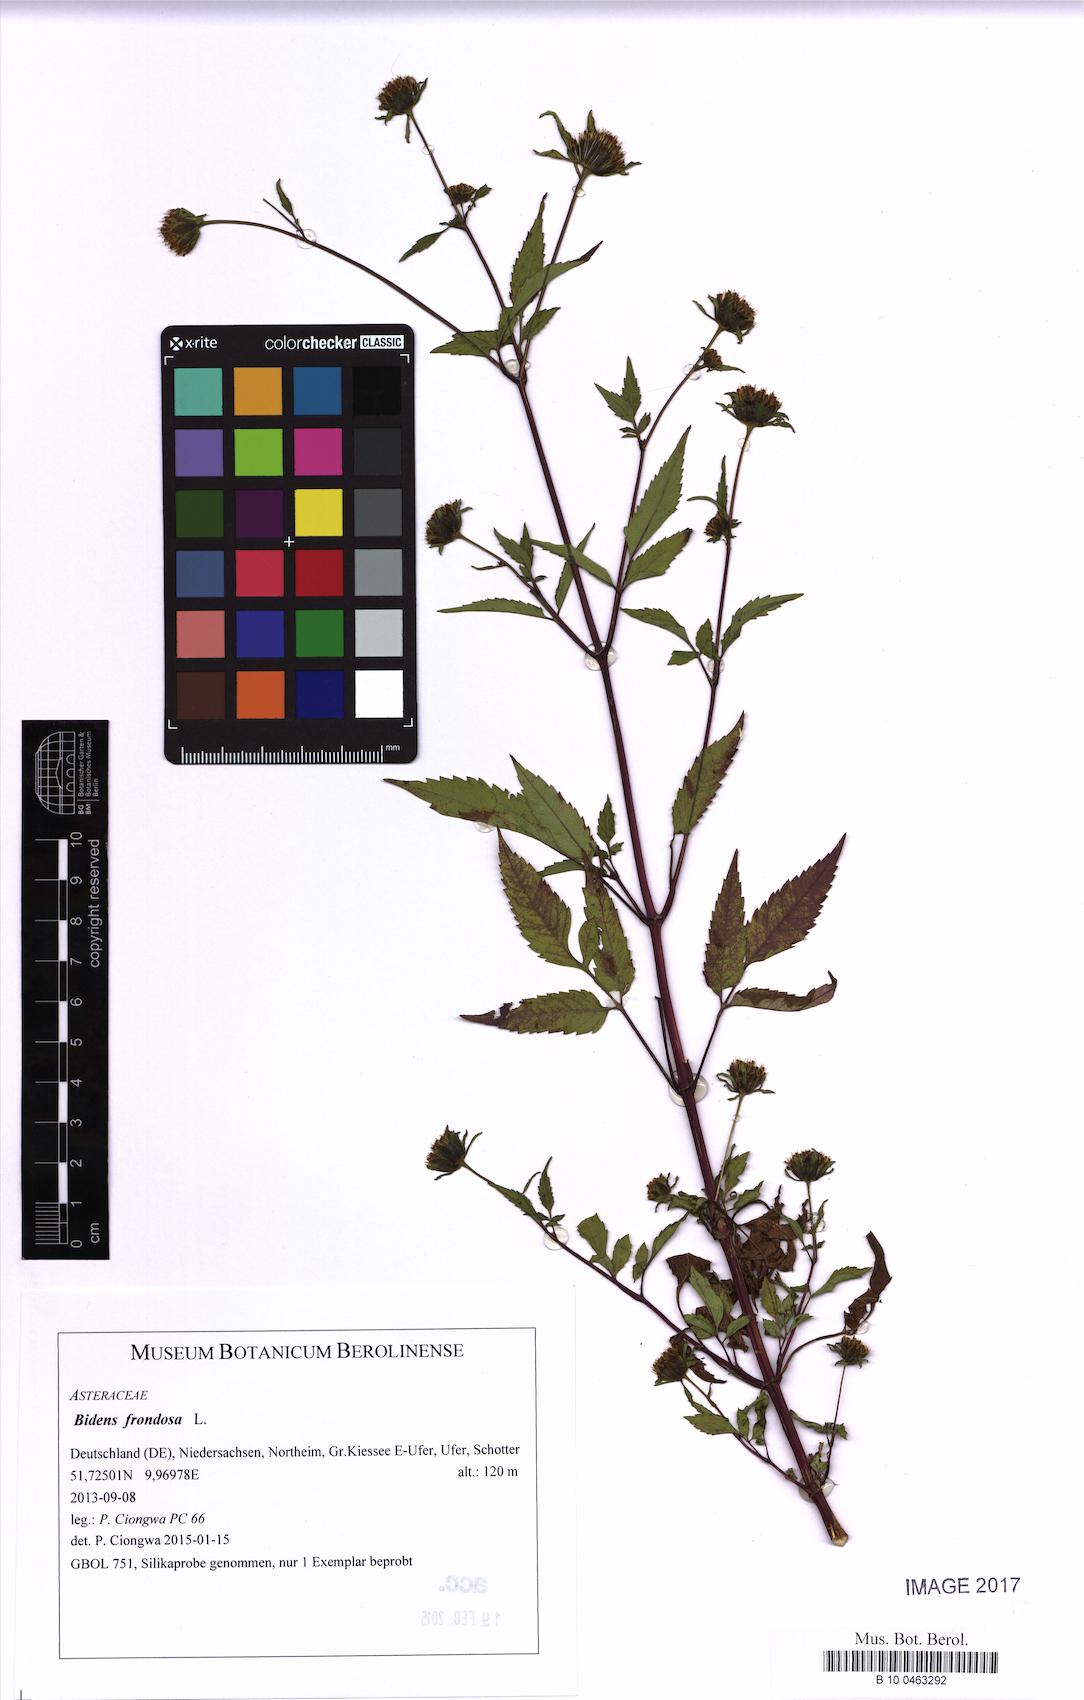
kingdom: Plantae
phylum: Tracheophyta
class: Magnoliopsida
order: Asterales
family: Asteraceae
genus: Bidens
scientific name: Bidens frondosa
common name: Beggarticks
